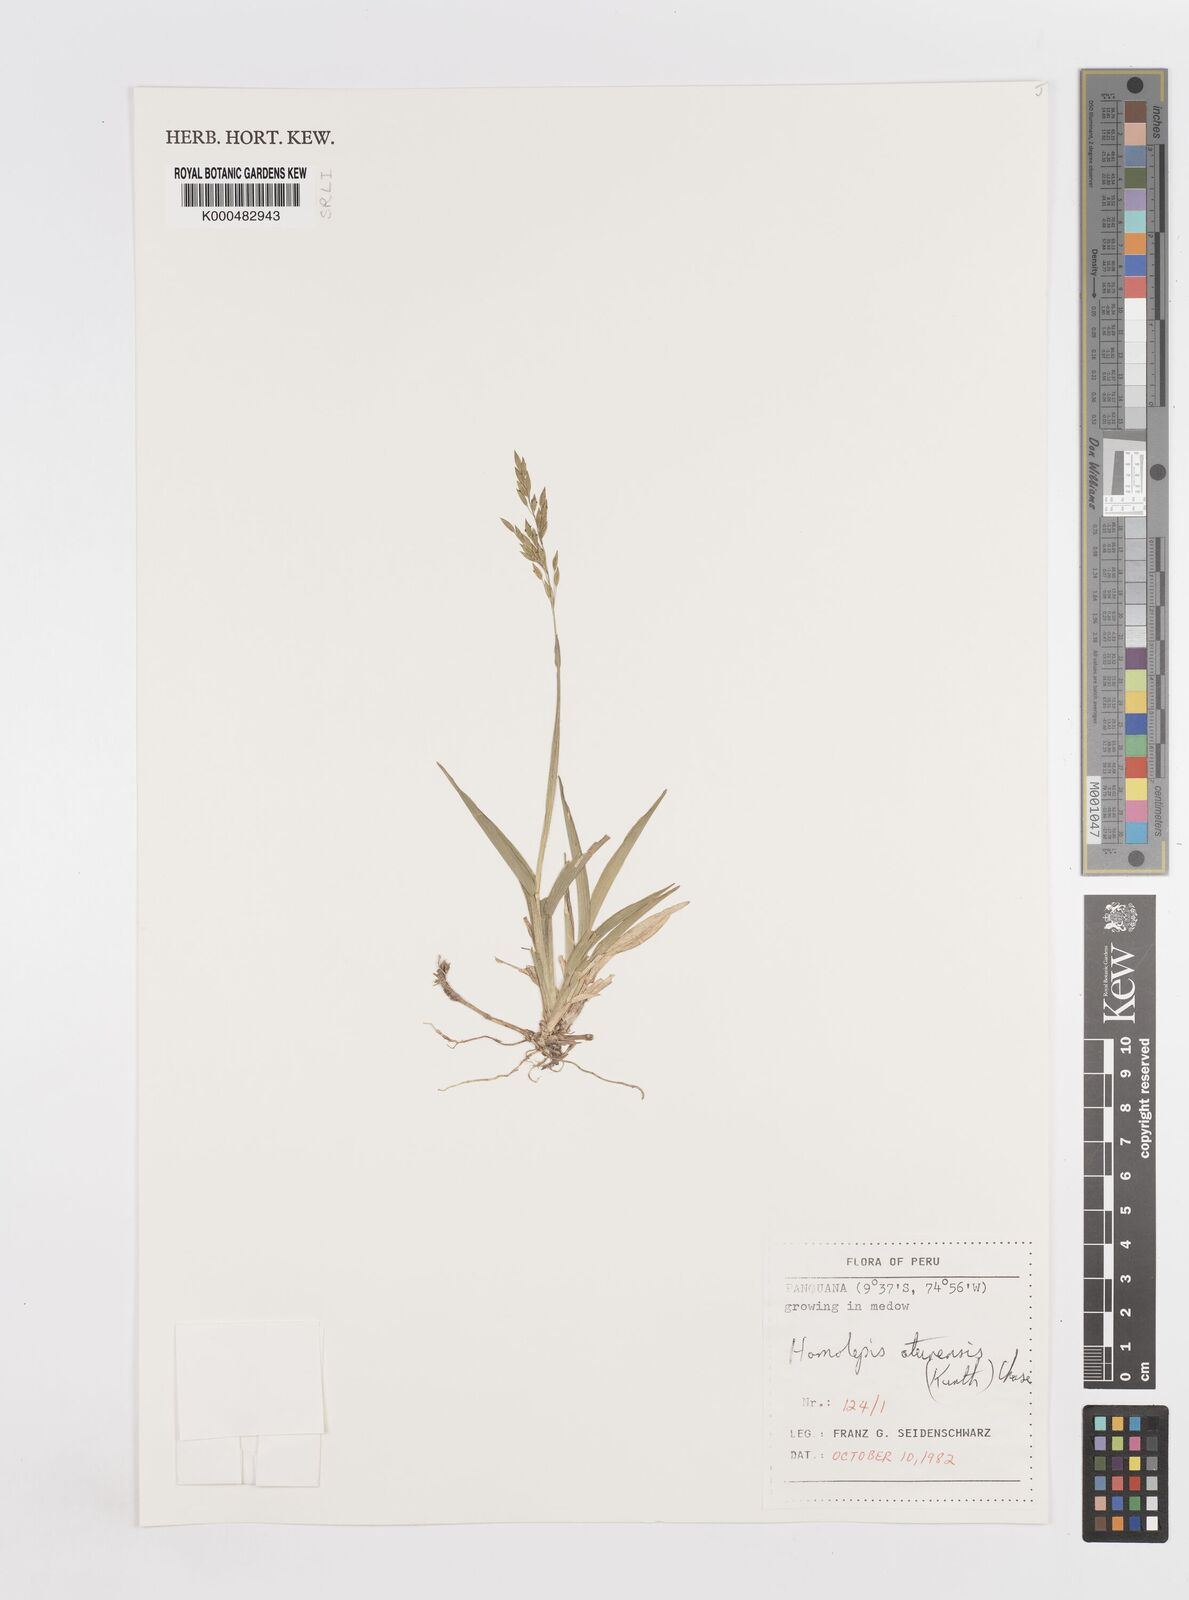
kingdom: Plantae
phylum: Tracheophyta
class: Liliopsida
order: Poales
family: Poaceae
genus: Homolepis
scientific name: Homolepis aturensis
